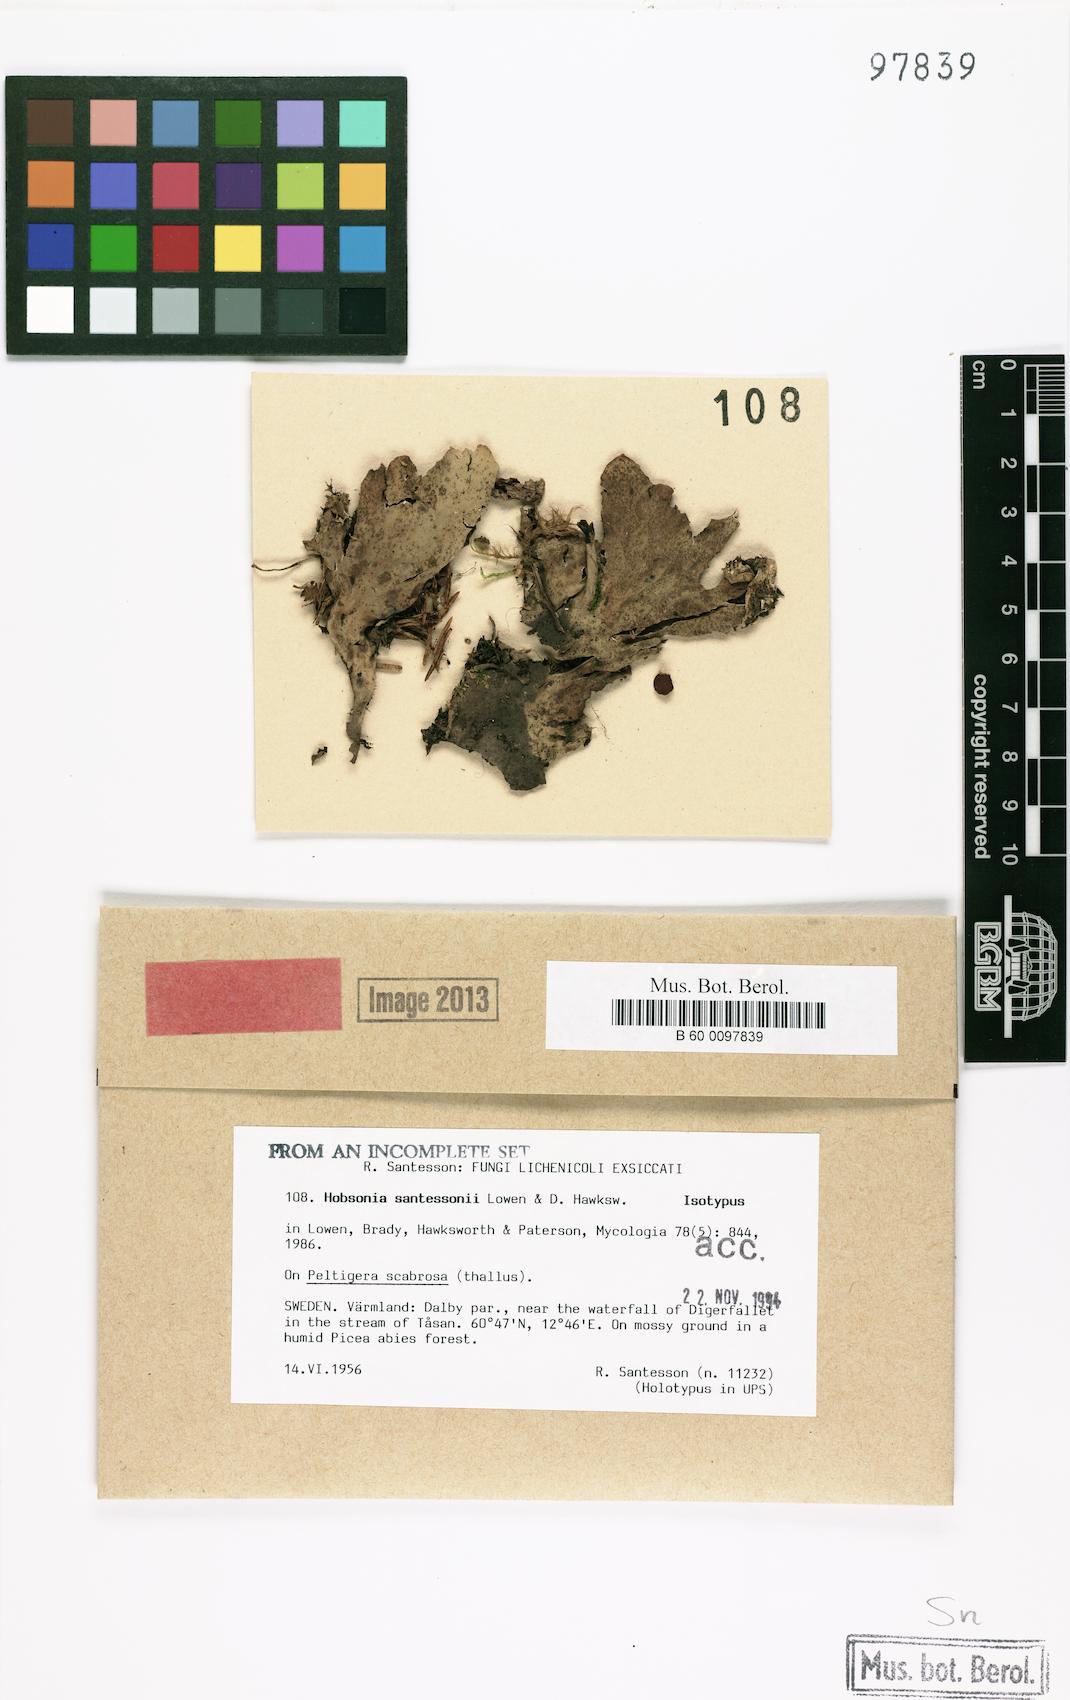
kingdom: Fungi
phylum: Ascomycota
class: Dothideomycetes
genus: Hobsoniopsis
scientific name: Hobsoniopsis santessonii
